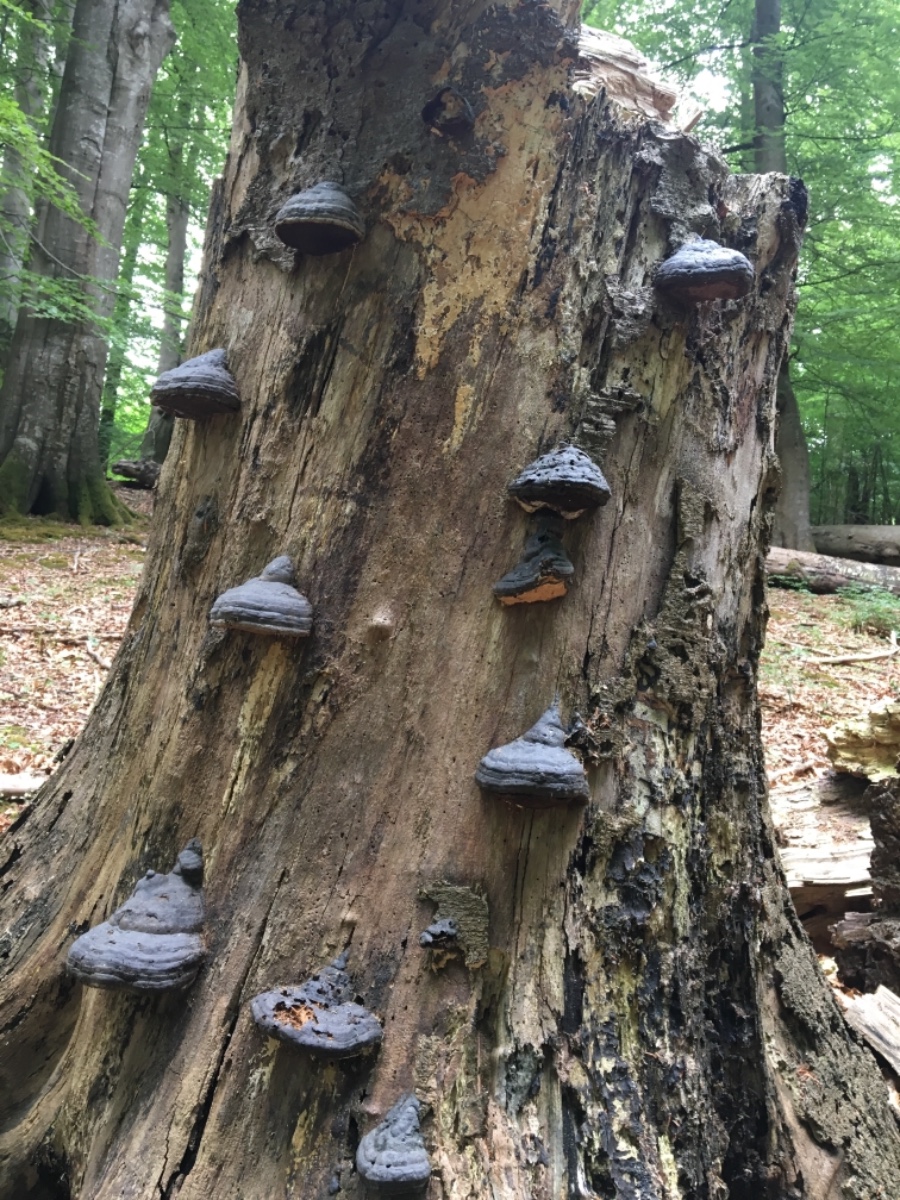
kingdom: Fungi
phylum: Basidiomycota
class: Agaricomycetes
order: Polyporales
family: Polyporaceae
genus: Fomes
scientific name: Fomes fomentarius
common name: tøndersvamp
